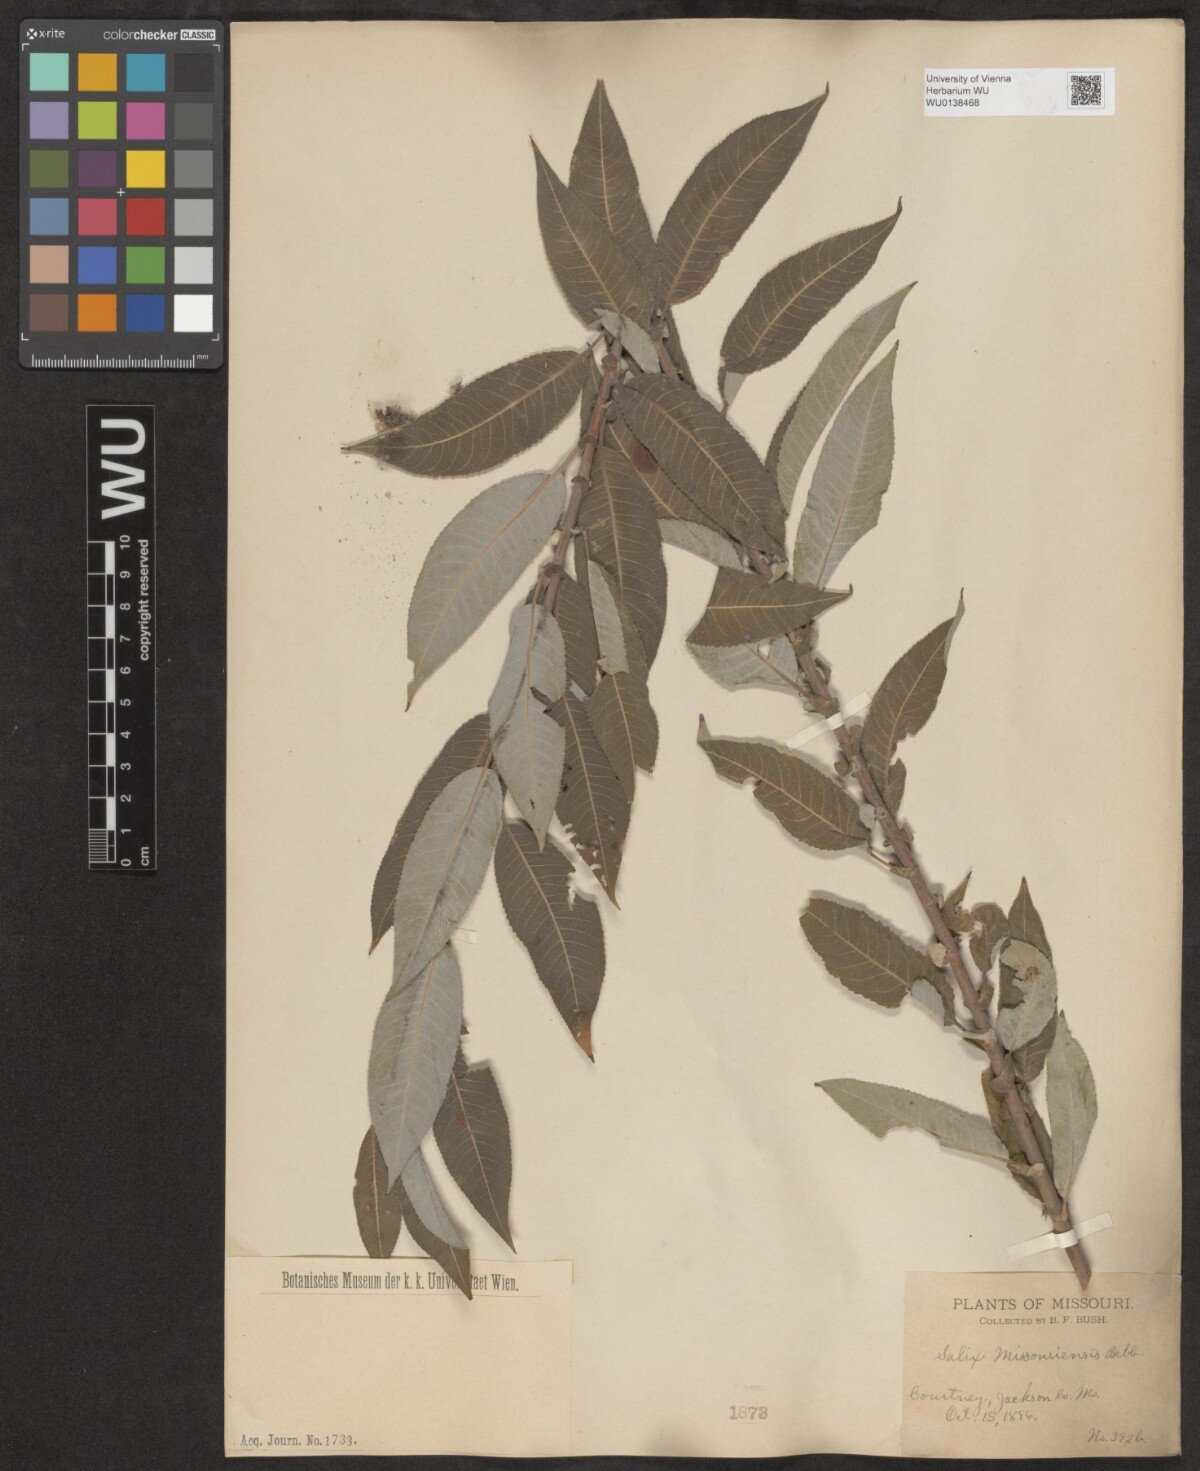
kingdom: Plantae
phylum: Tracheophyta
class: Magnoliopsida
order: Malpighiales
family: Salicaceae
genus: Salix
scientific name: Salix eriocephala
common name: Heart-leaved willow
